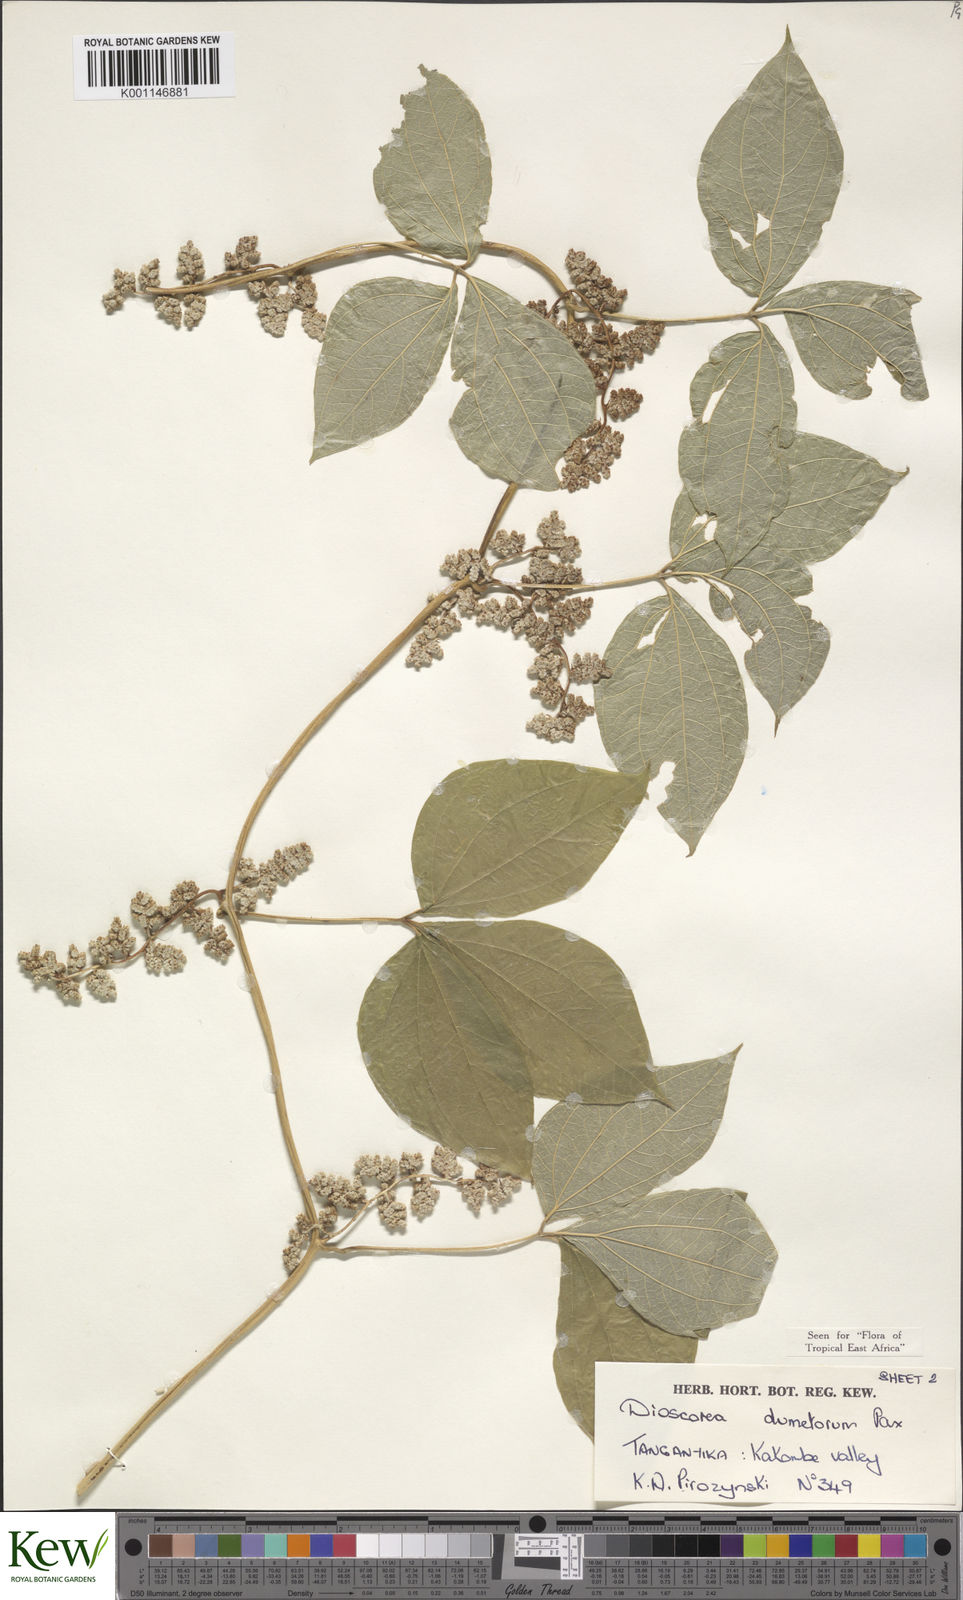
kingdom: Plantae
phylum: Tracheophyta
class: Liliopsida
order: Dioscoreales
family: Dioscoreaceae
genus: Dioscorea
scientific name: Dioscorea dumetorum
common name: African bitter yam
